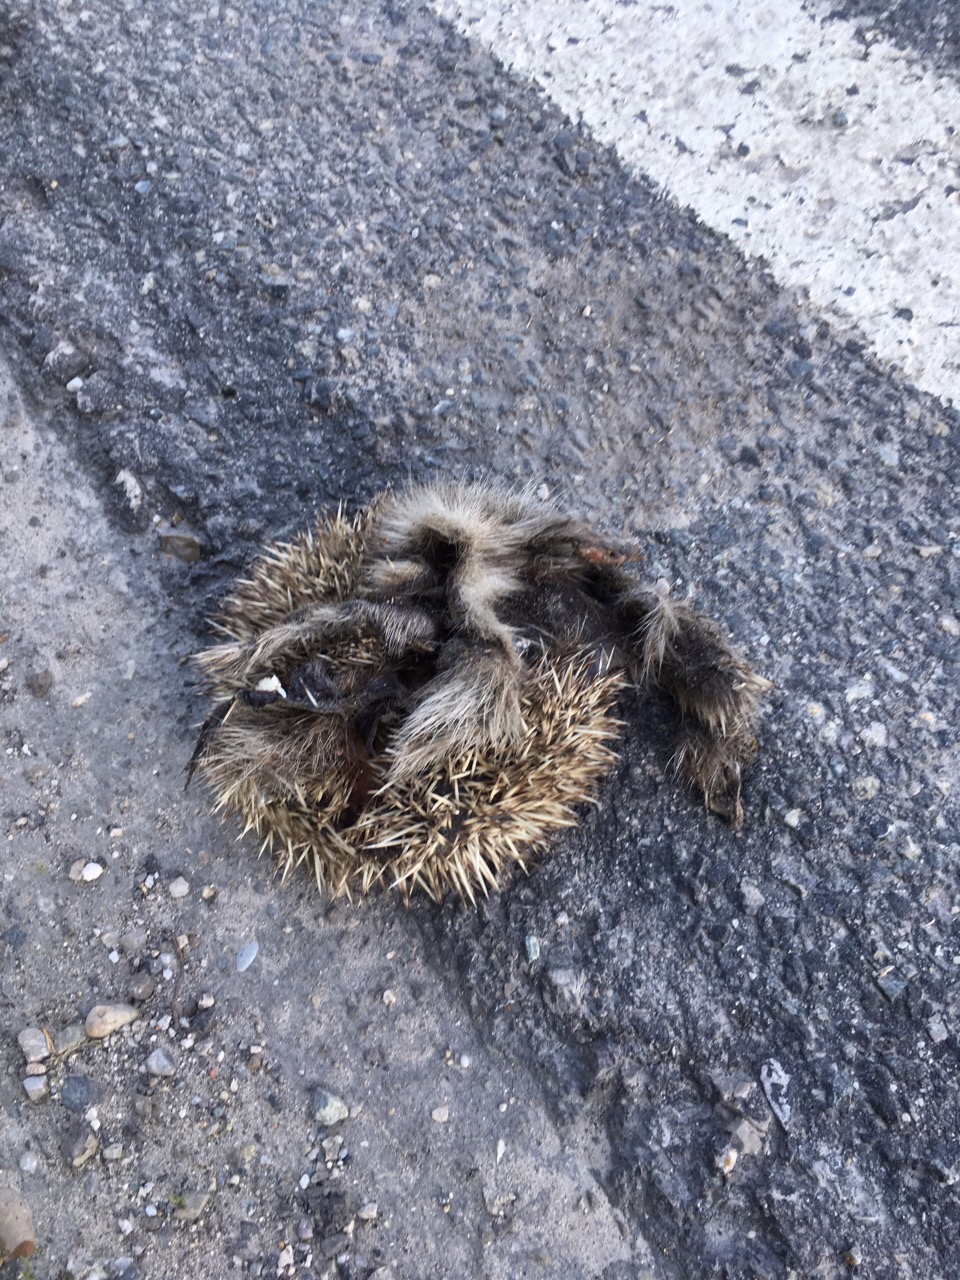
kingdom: Animalia
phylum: Chordata
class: Mammalia
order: Erinaceomorpha
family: Erinaceidae
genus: Erinaceus
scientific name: Erinaceus
